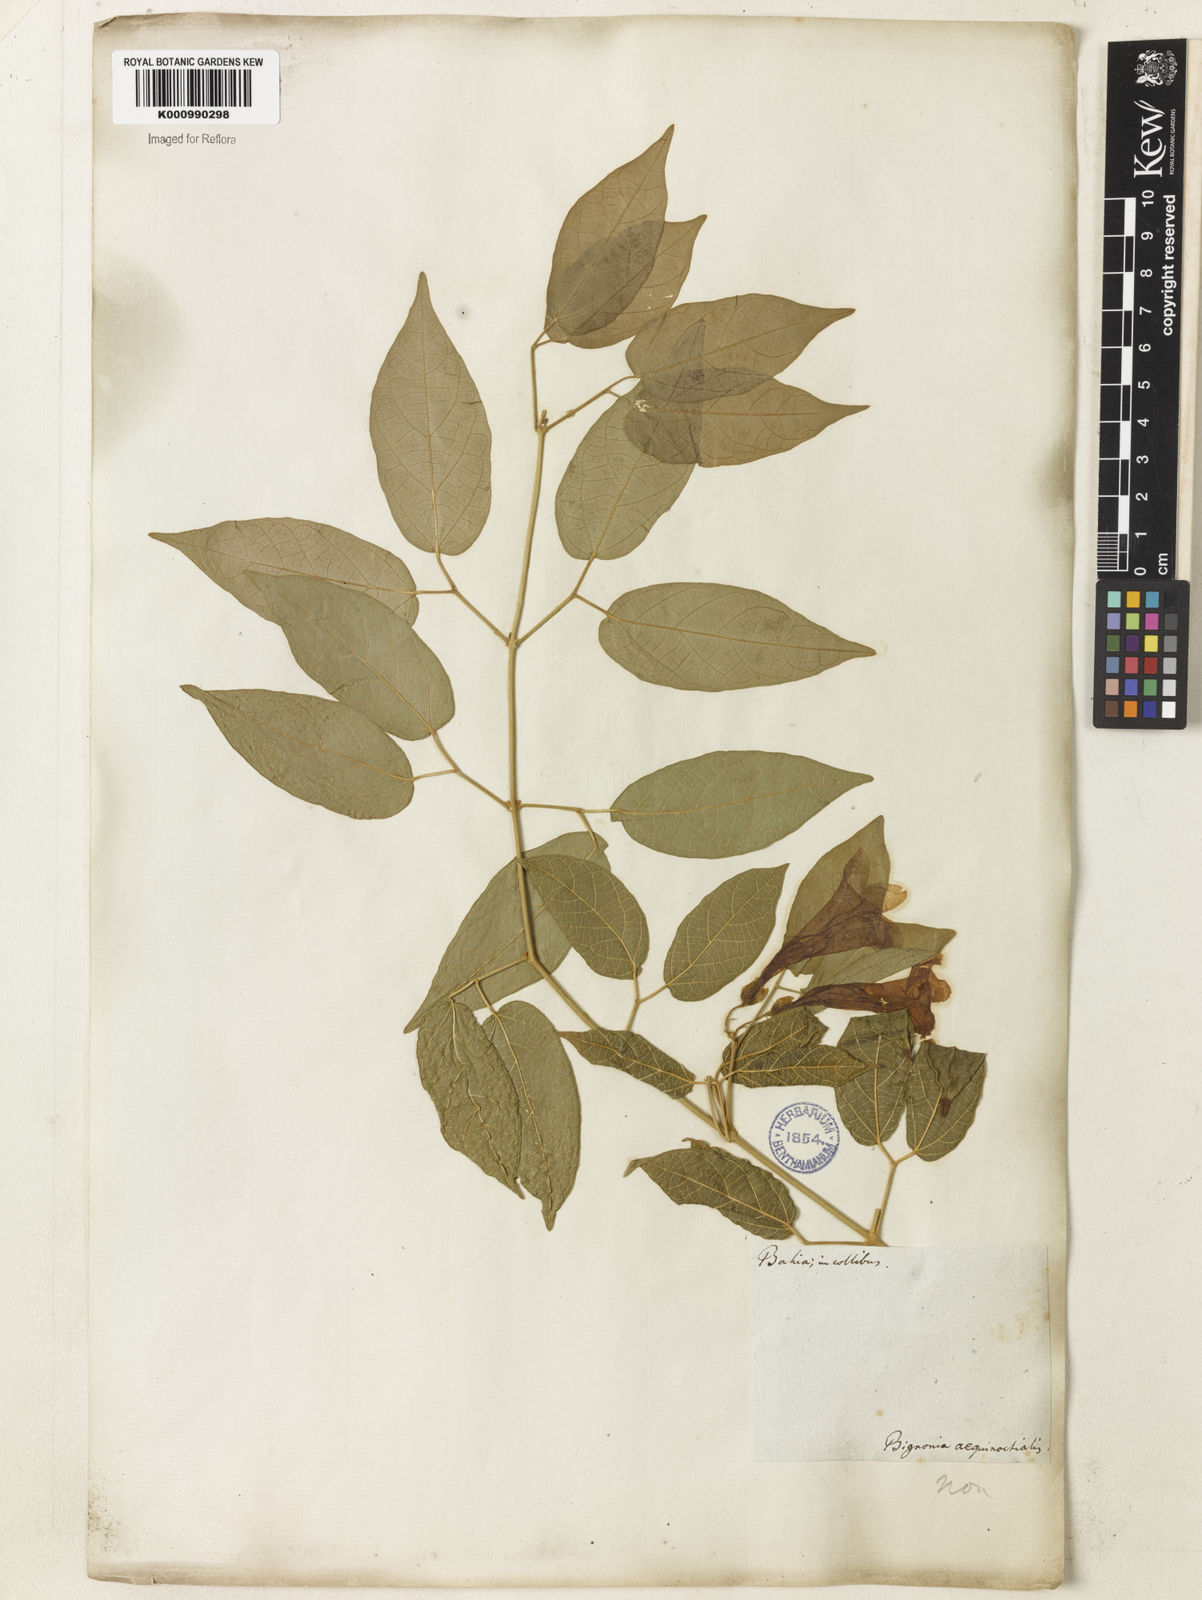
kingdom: Plantae
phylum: Tracheophyta
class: Magnoliopsida
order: Lamiales
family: Bignoniaceae
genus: Stizophyllum
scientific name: Stizophyllum perforatum
